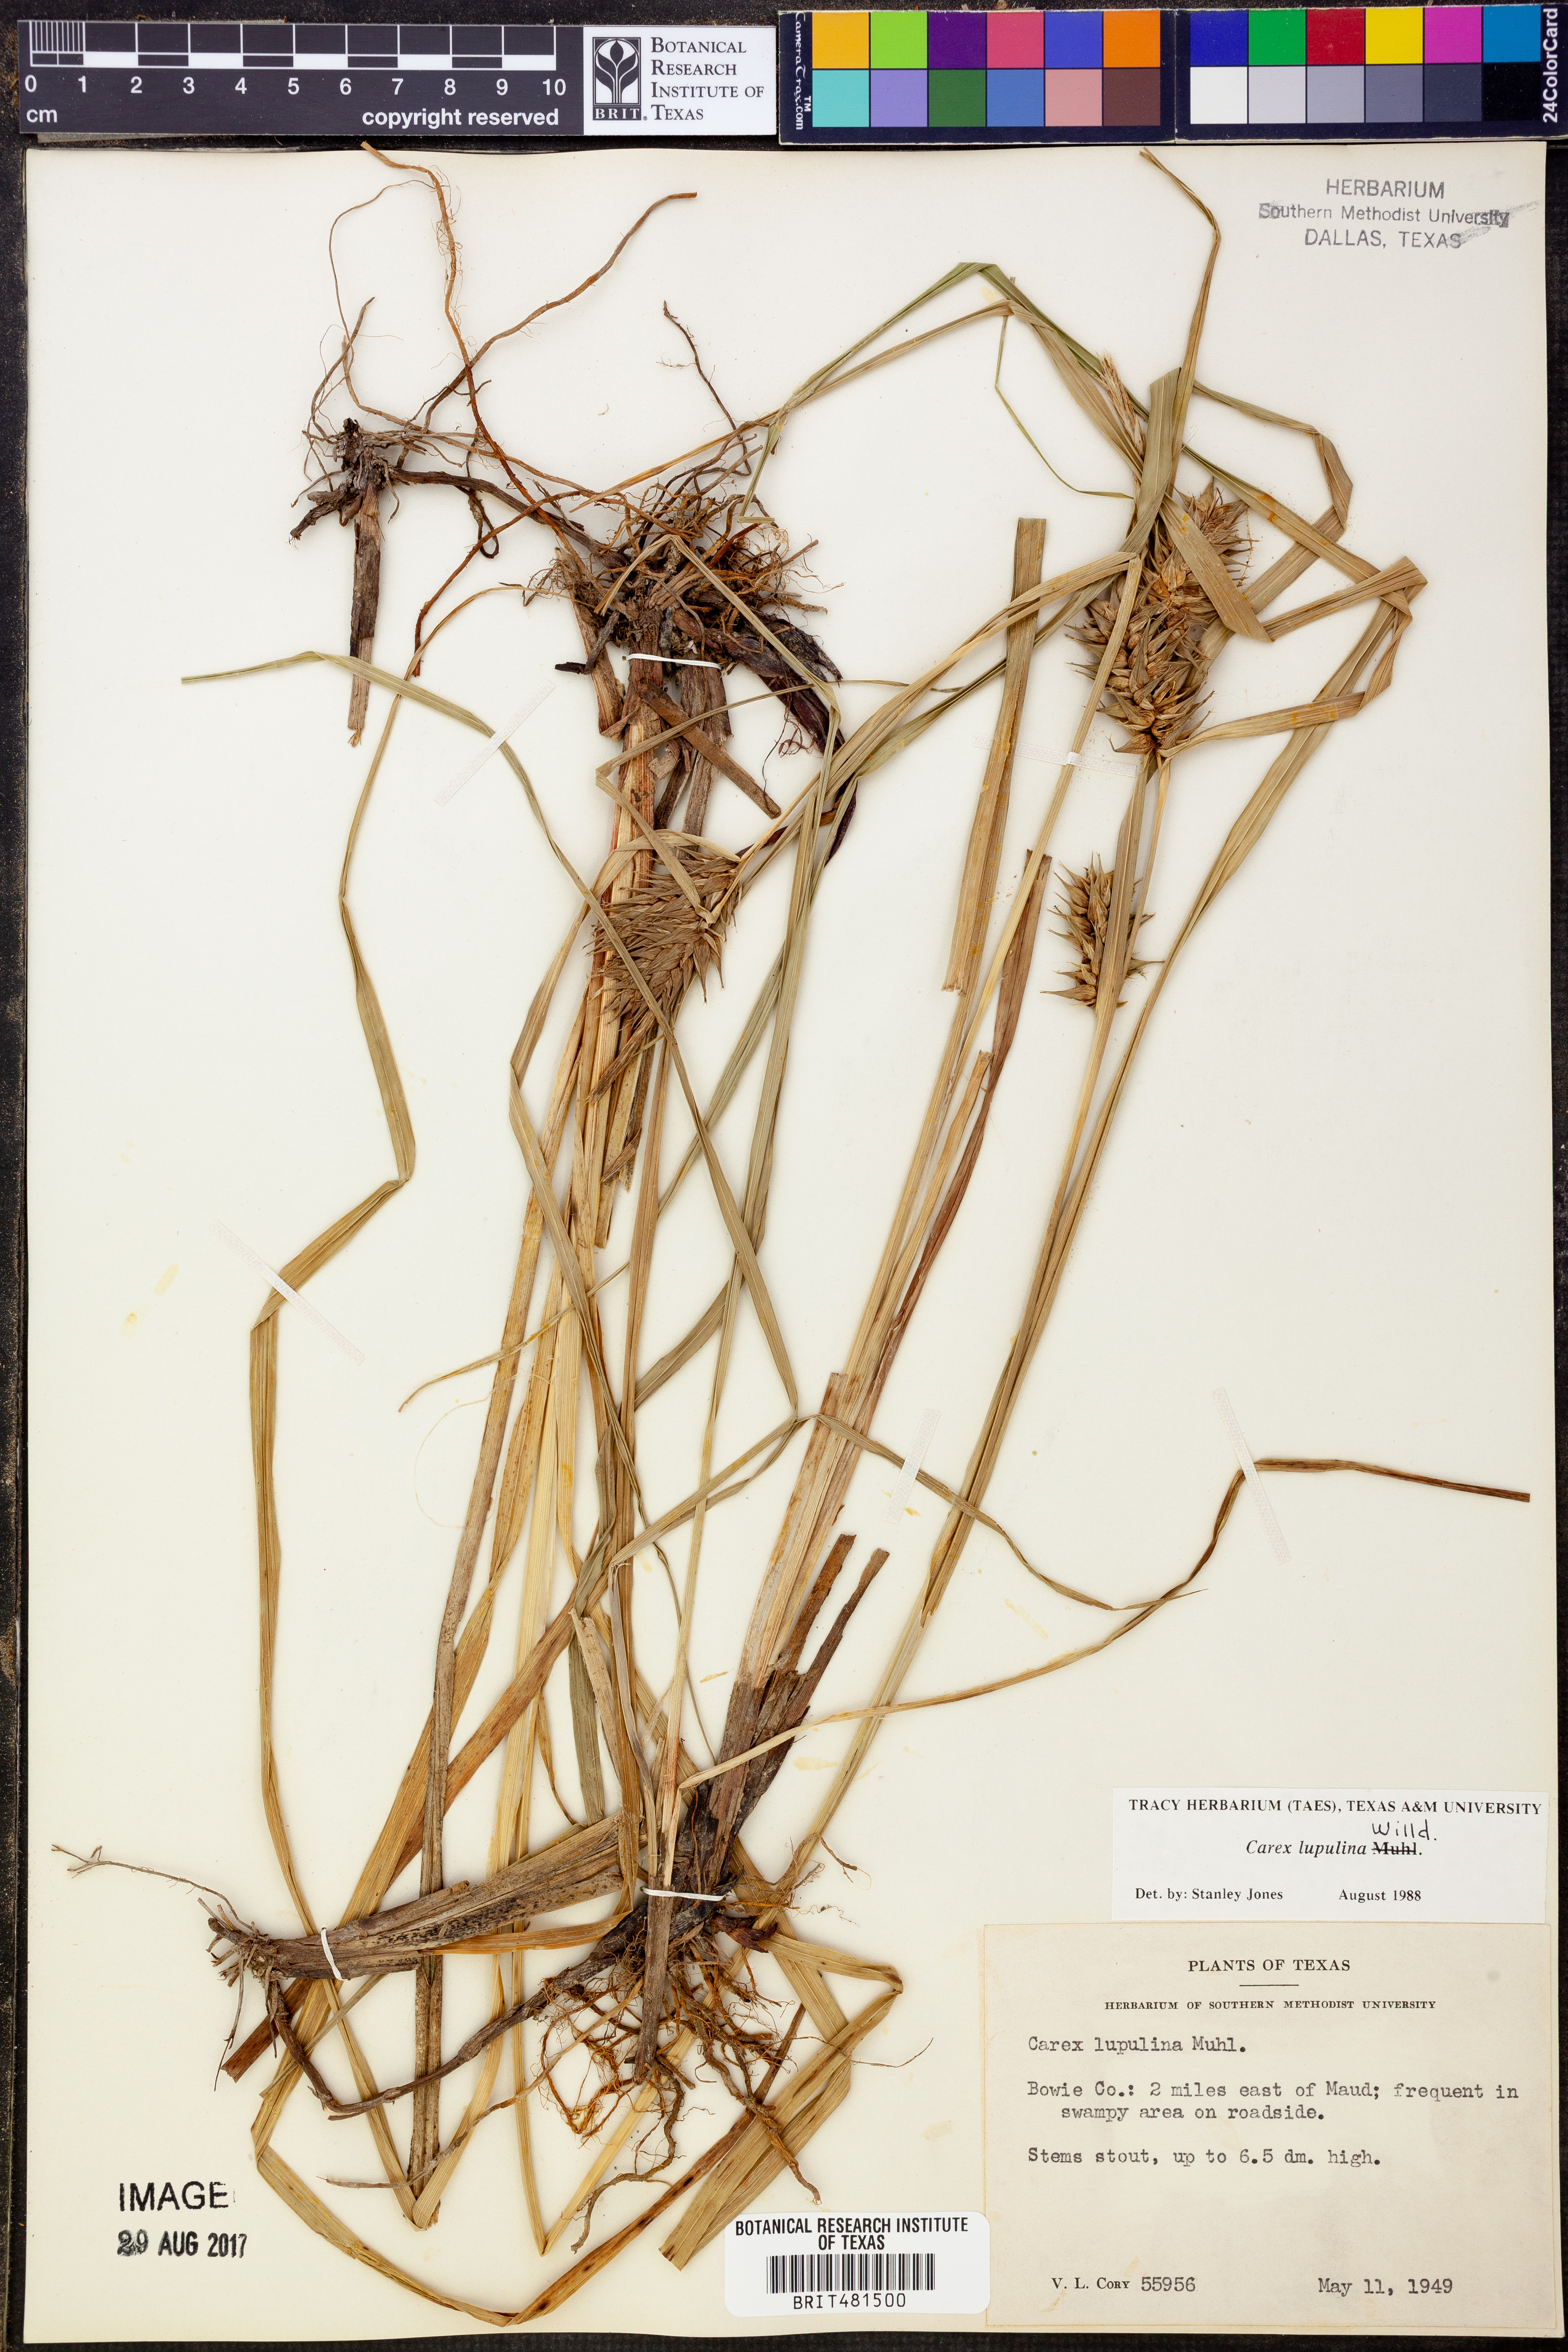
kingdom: Plantae
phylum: Tracheophyta
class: Liliopsida
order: Poales
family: Cyperaceae
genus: Carex
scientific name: Carex lupulina
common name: Hop sedge
